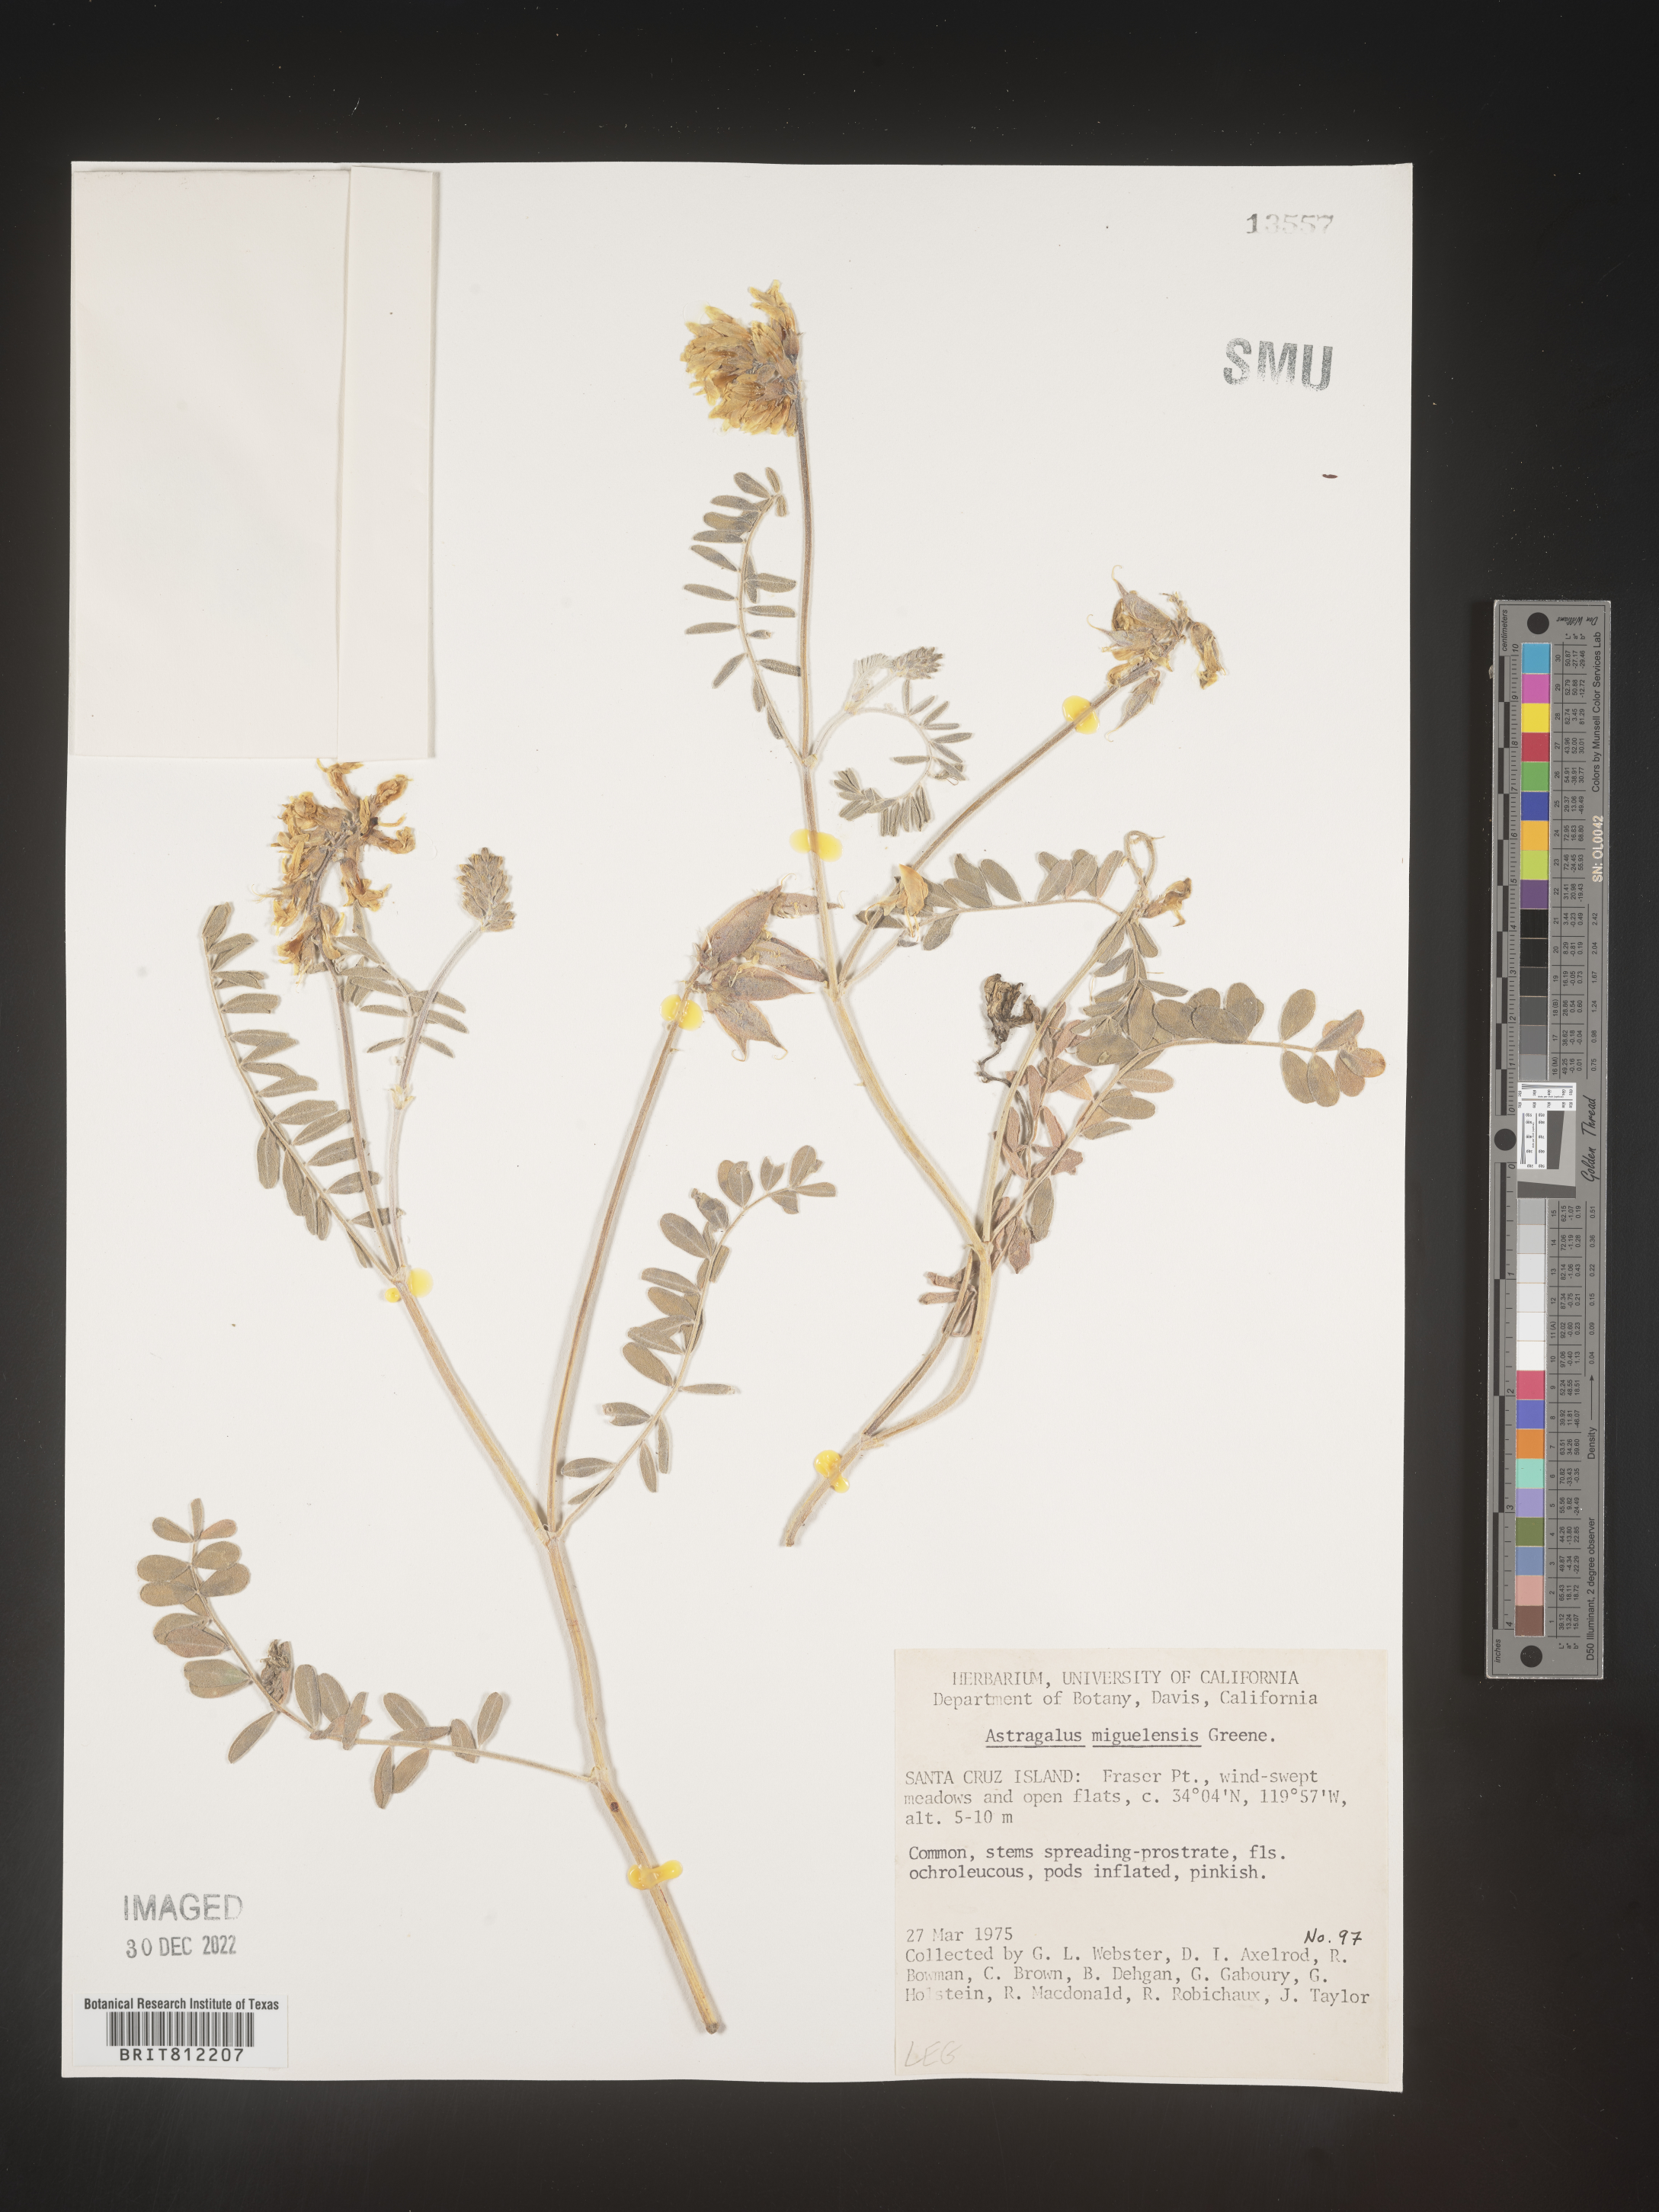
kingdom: Plantae
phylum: Tracheophyta
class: Magnoliopsida
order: Fabales
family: Fabaceae
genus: Astragalus
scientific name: Astragalus
